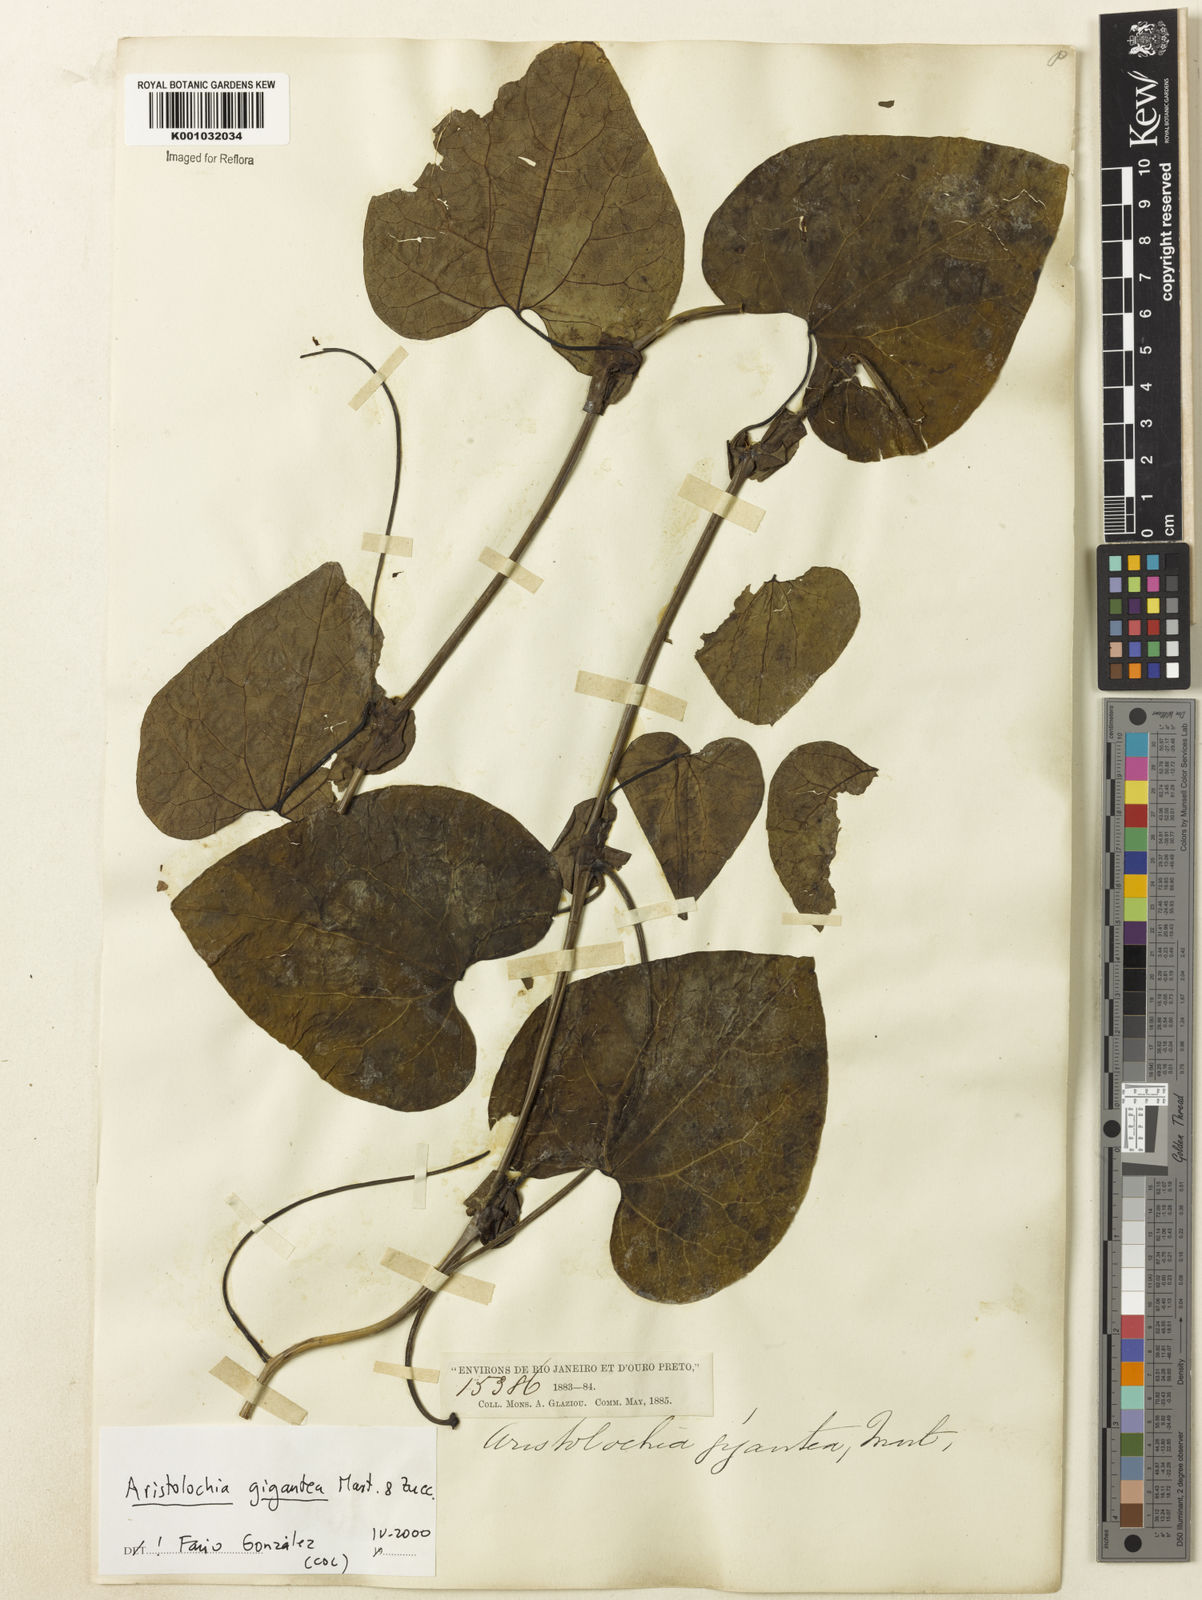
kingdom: Plantae
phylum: Tracheophyta
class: Magnoliopsida
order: Piperales
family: Aristolochiaceae
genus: Aristolochia
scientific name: Aristolochia gigantea
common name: Duckflower
